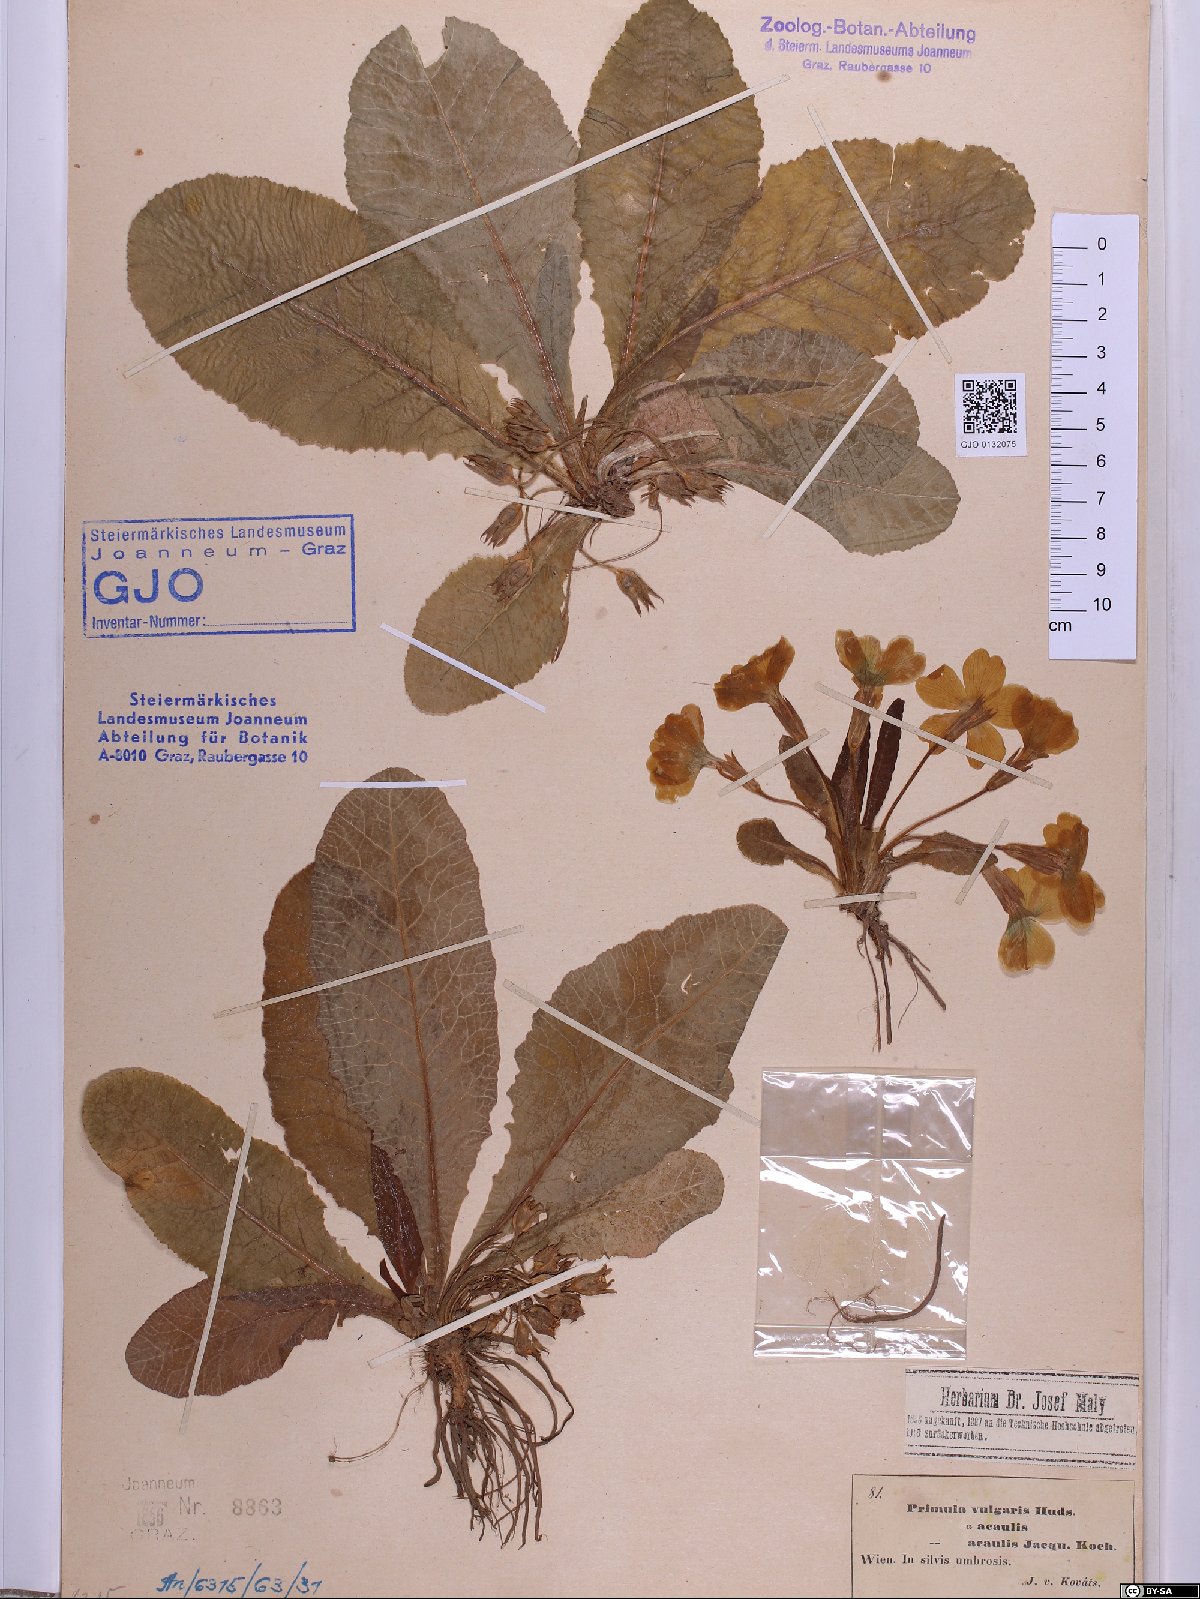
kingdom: Plantae
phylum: Tracheophyta
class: Magnoliopsida
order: Ericales
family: Primulaceae
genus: Primula
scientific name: Primula vulgaris
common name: Primrose
